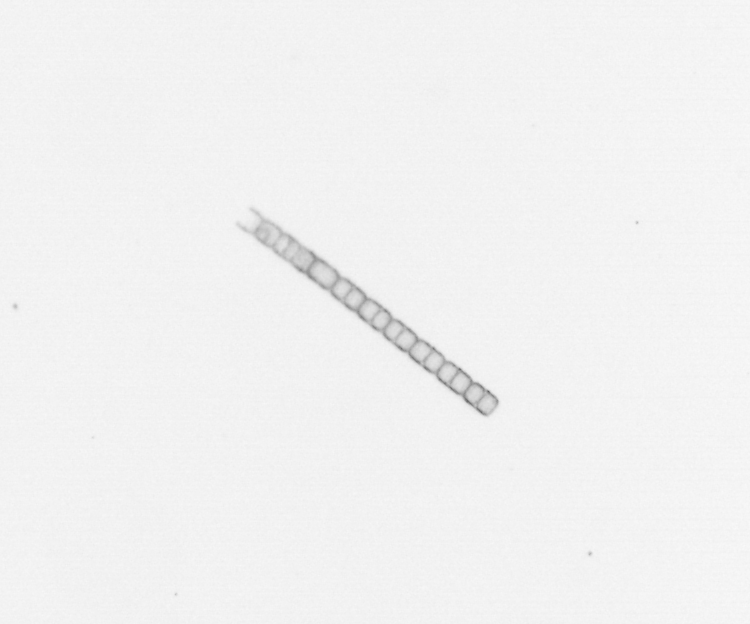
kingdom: Chromista
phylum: Ochrophyta
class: Bacillariophyceae
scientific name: Bacillariophyceae
